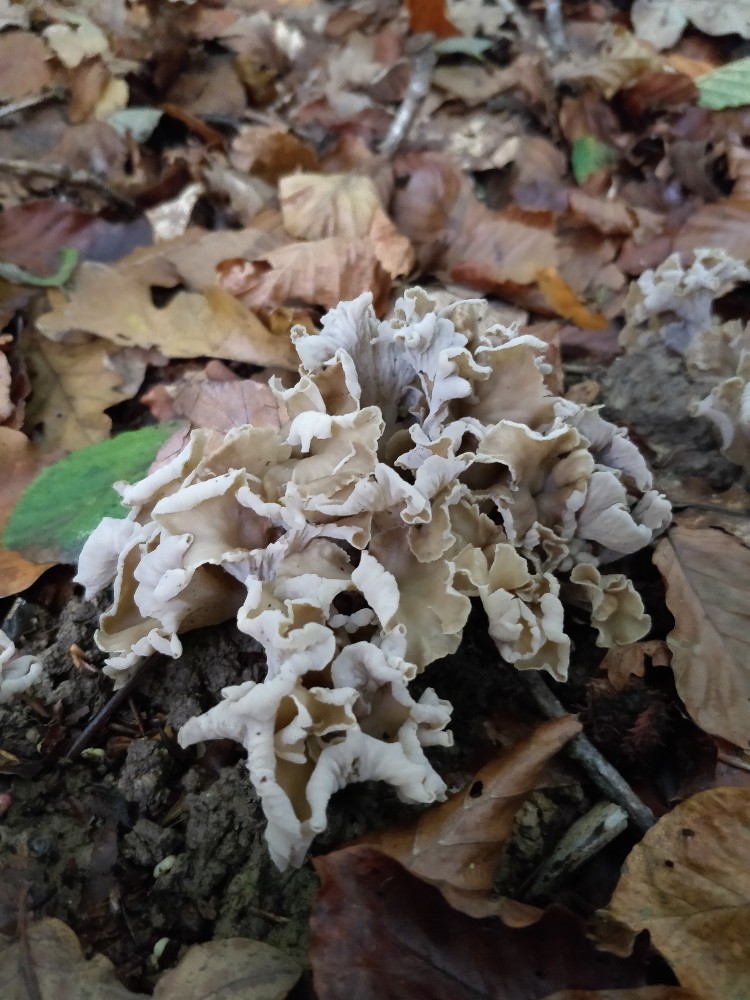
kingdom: Fungi
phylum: Basidiomycota
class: Agaricomycetes
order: Cantharellales
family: Hydnaceae
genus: Craterellus
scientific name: Craterellus undulatus
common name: liden kantarel
